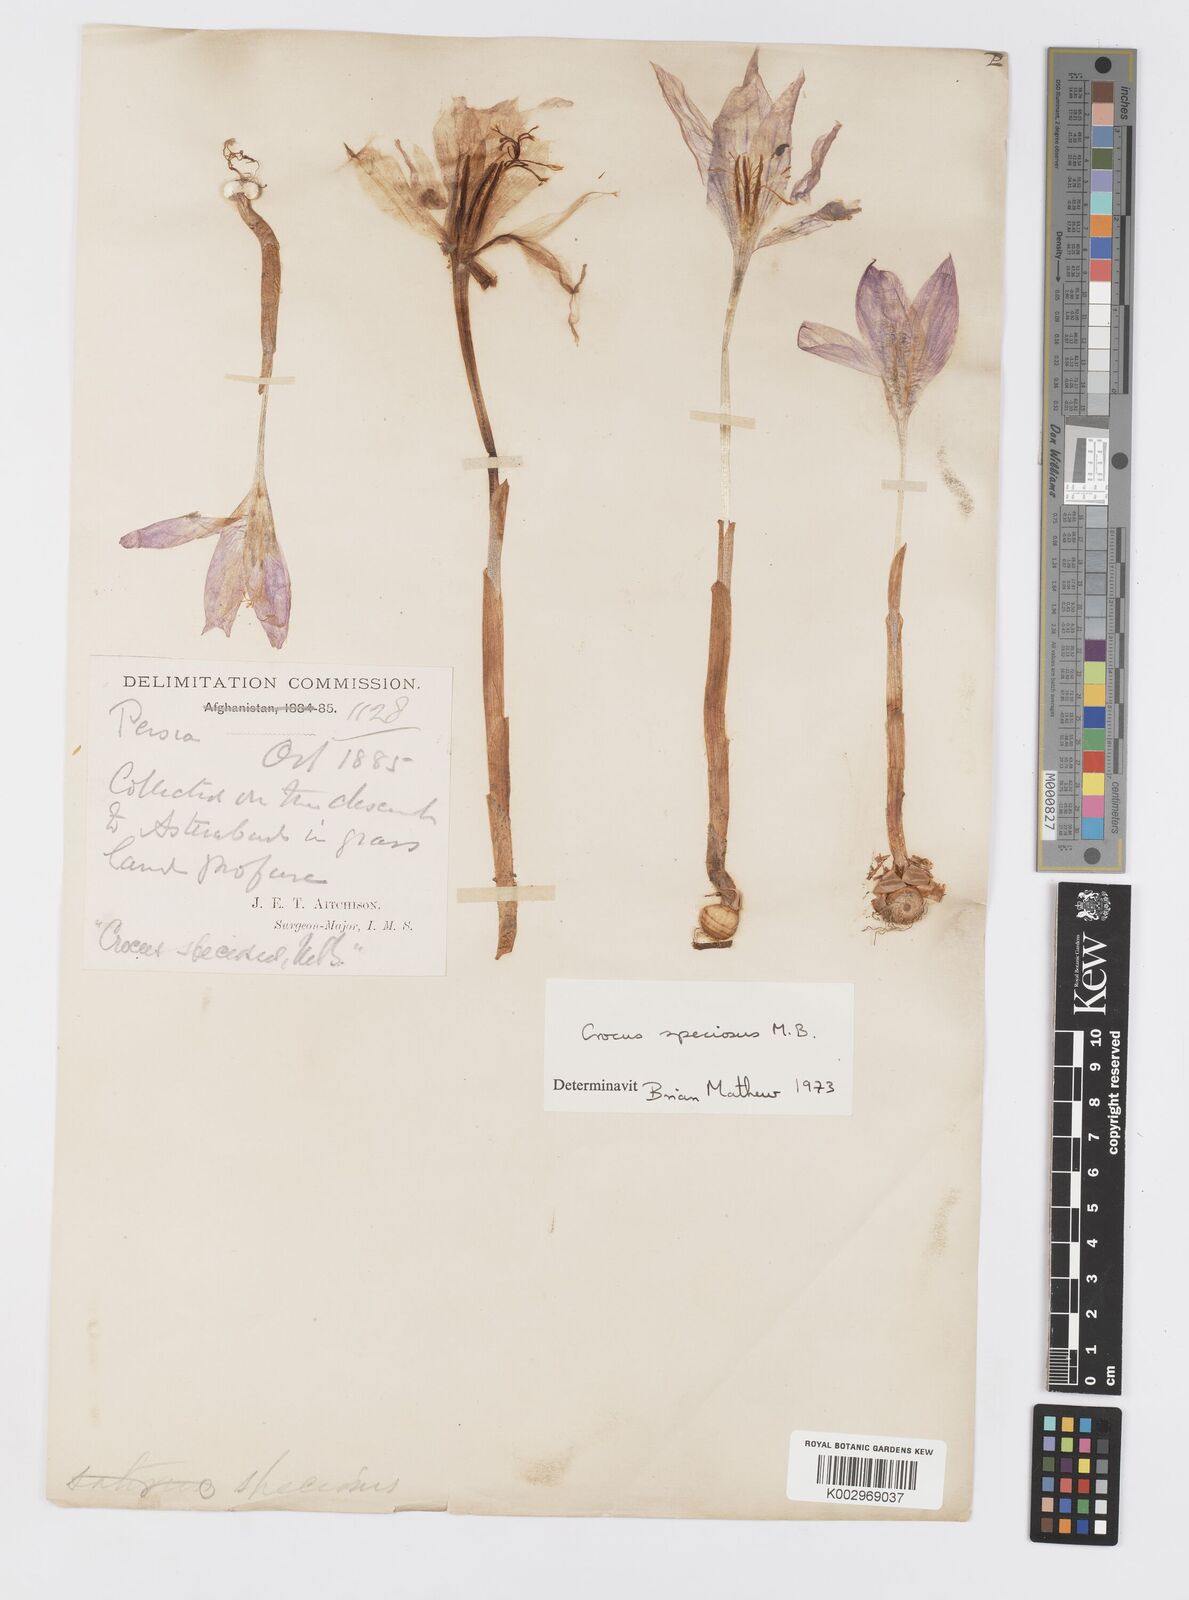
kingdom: Plantae
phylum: Tracheophyta
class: Liliopsida
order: Asparagales
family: Iridaceae
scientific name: Iridaceae
